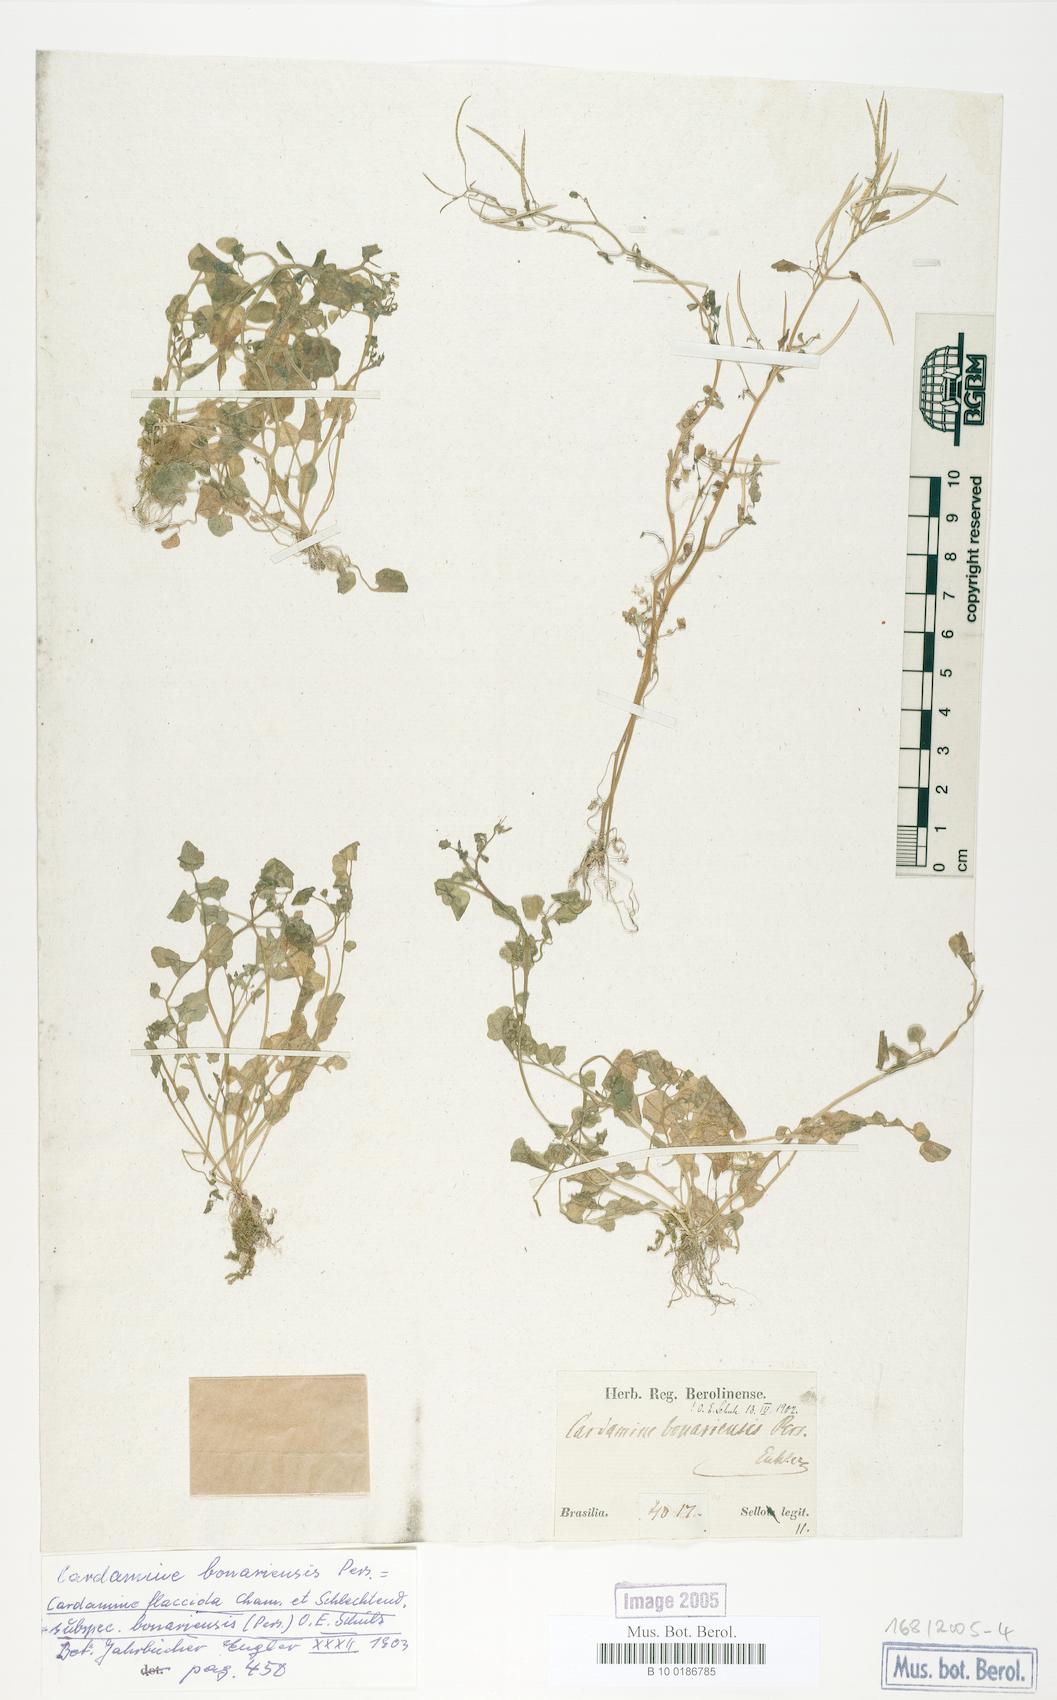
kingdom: Plantae
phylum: Tracheophyta
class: Magnoliopsida
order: Brassicales
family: Brassicaceae
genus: Cardamine
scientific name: Cardamine bonariensis
